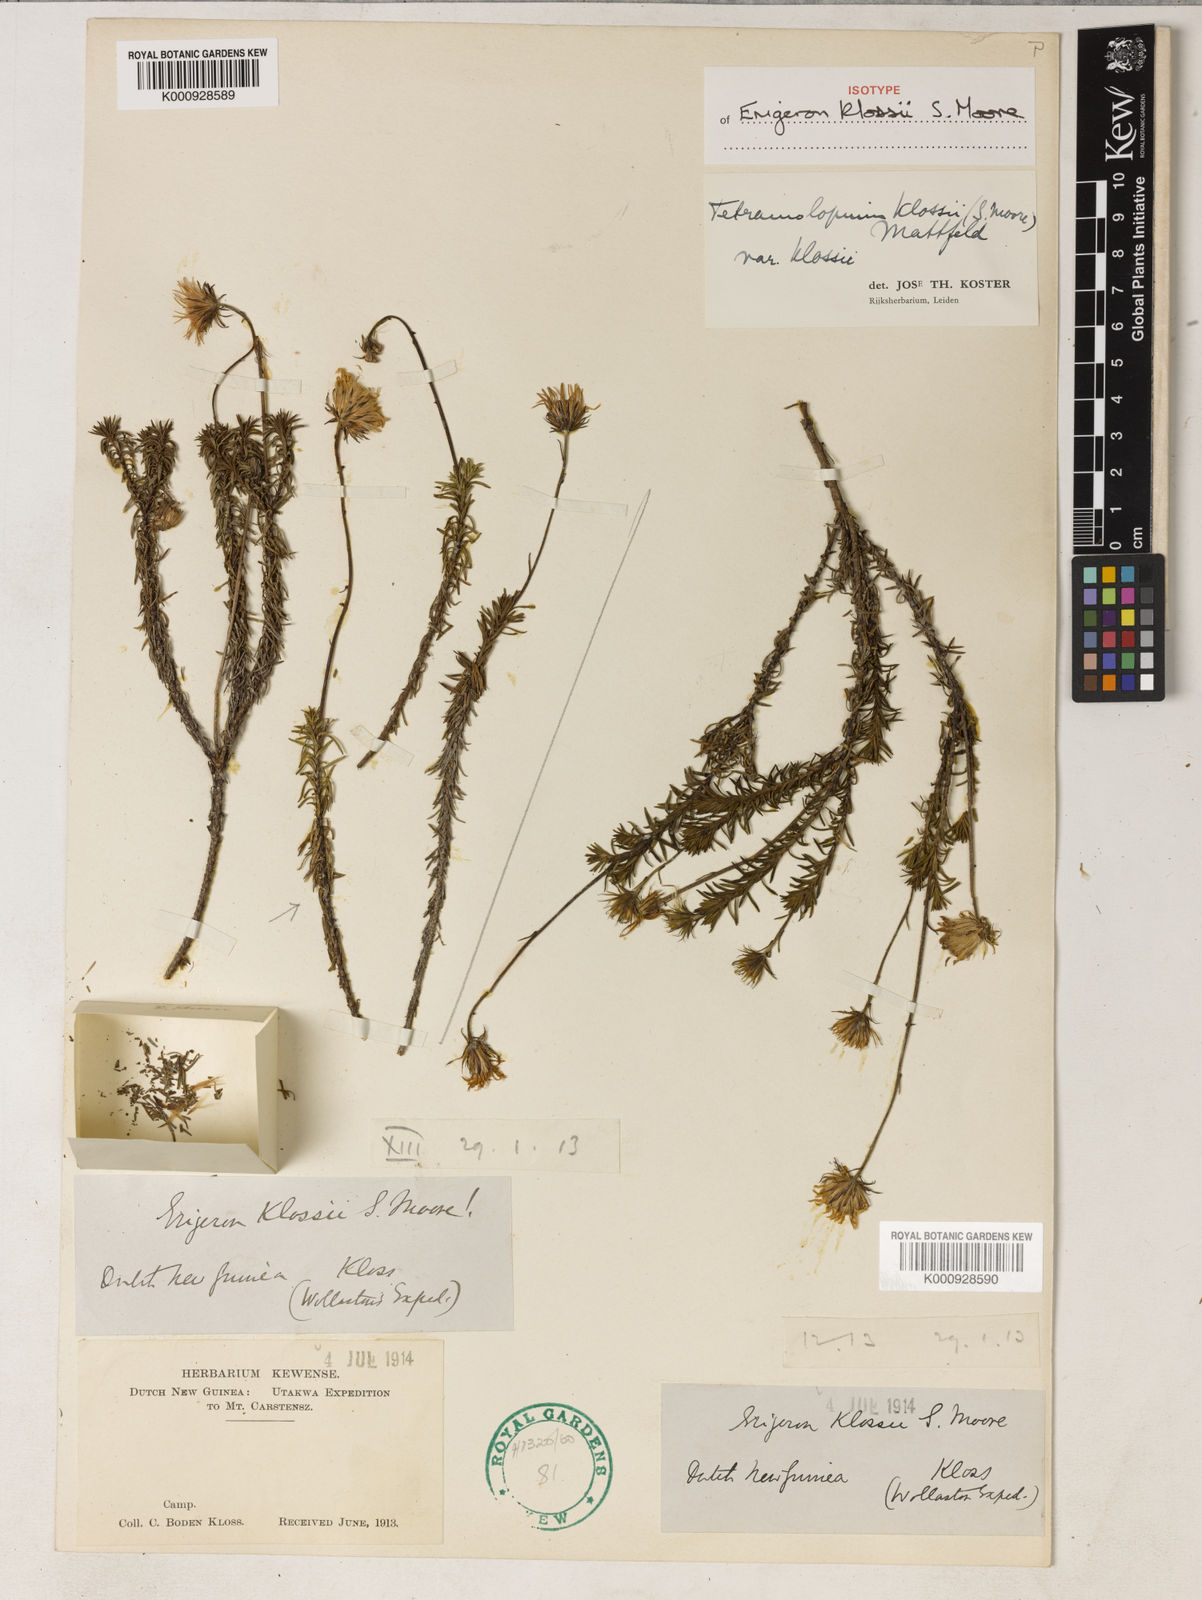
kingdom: Plantae
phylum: Tracheophyta
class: Magnoliopsida
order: Asterales
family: Asteraceae
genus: Tetramolopium
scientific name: Tetramolopium klossii
